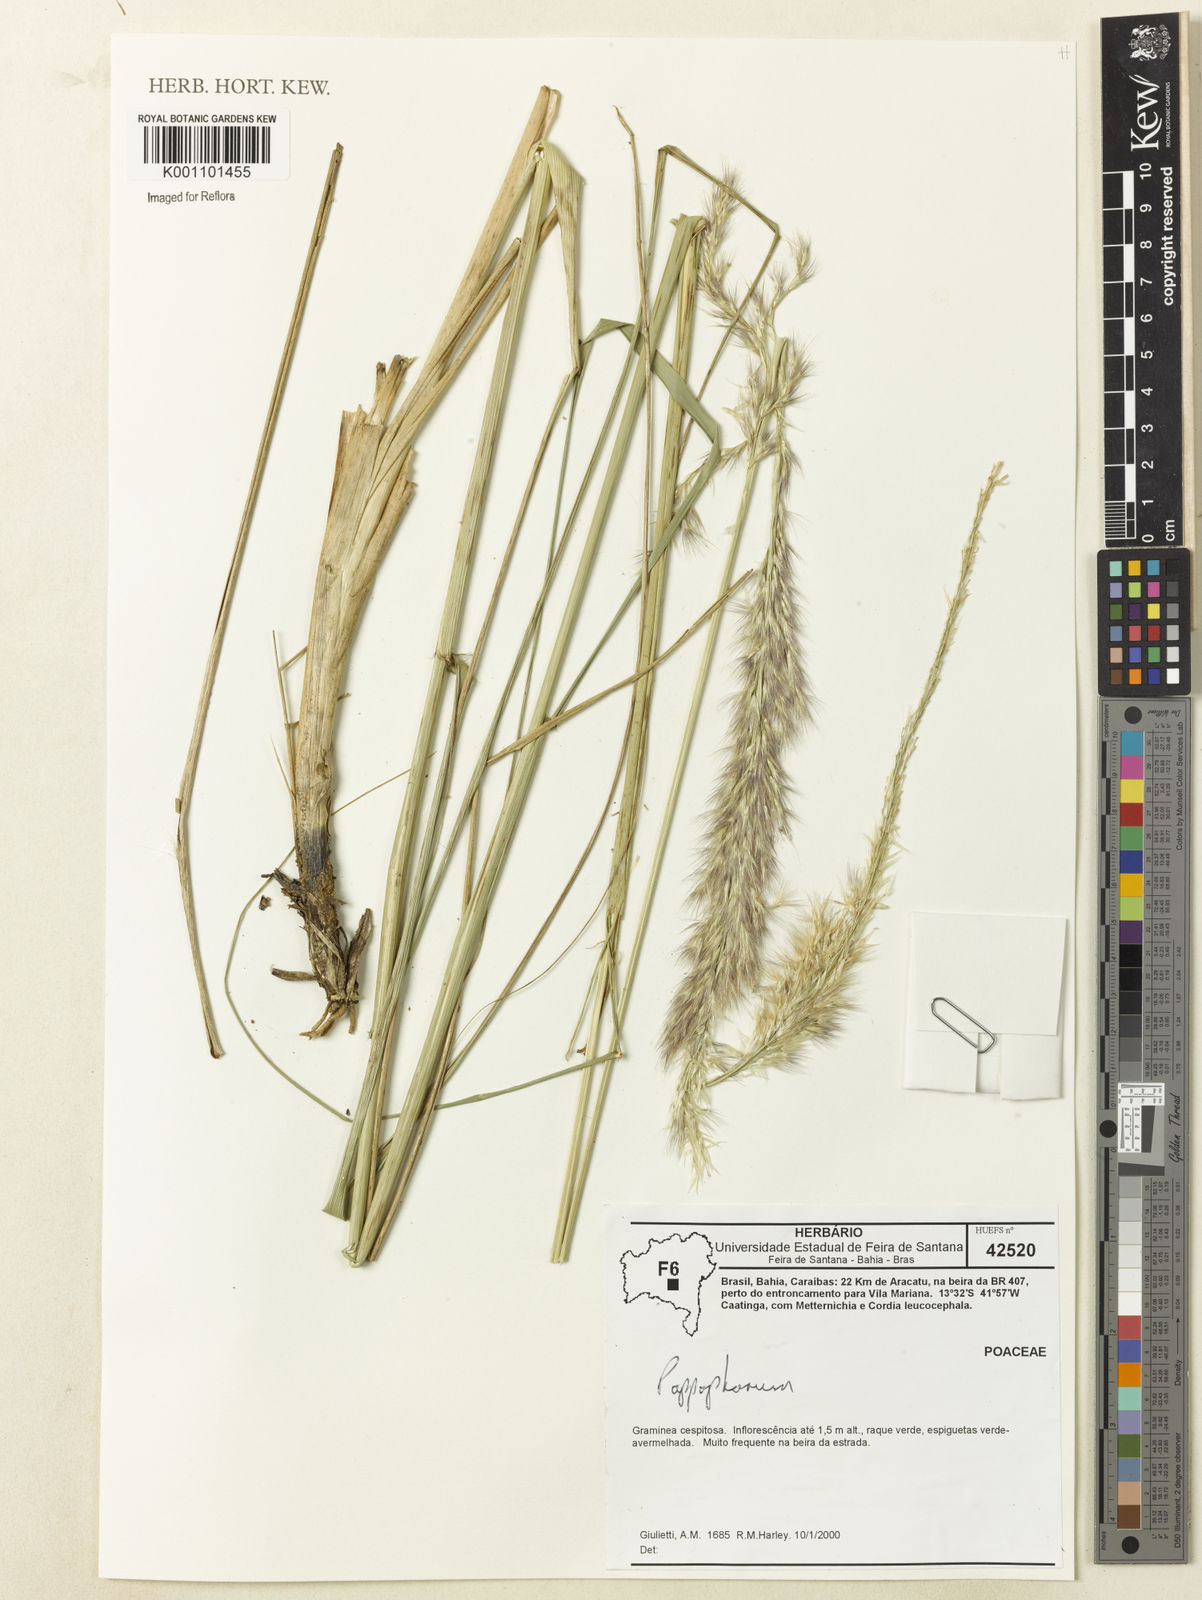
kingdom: Plantae
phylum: Tracheophyta
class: Liliopsida
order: Poales
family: Poaceae
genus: Pappophorum
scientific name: Pappophorum pappiferum
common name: Crabgrass
